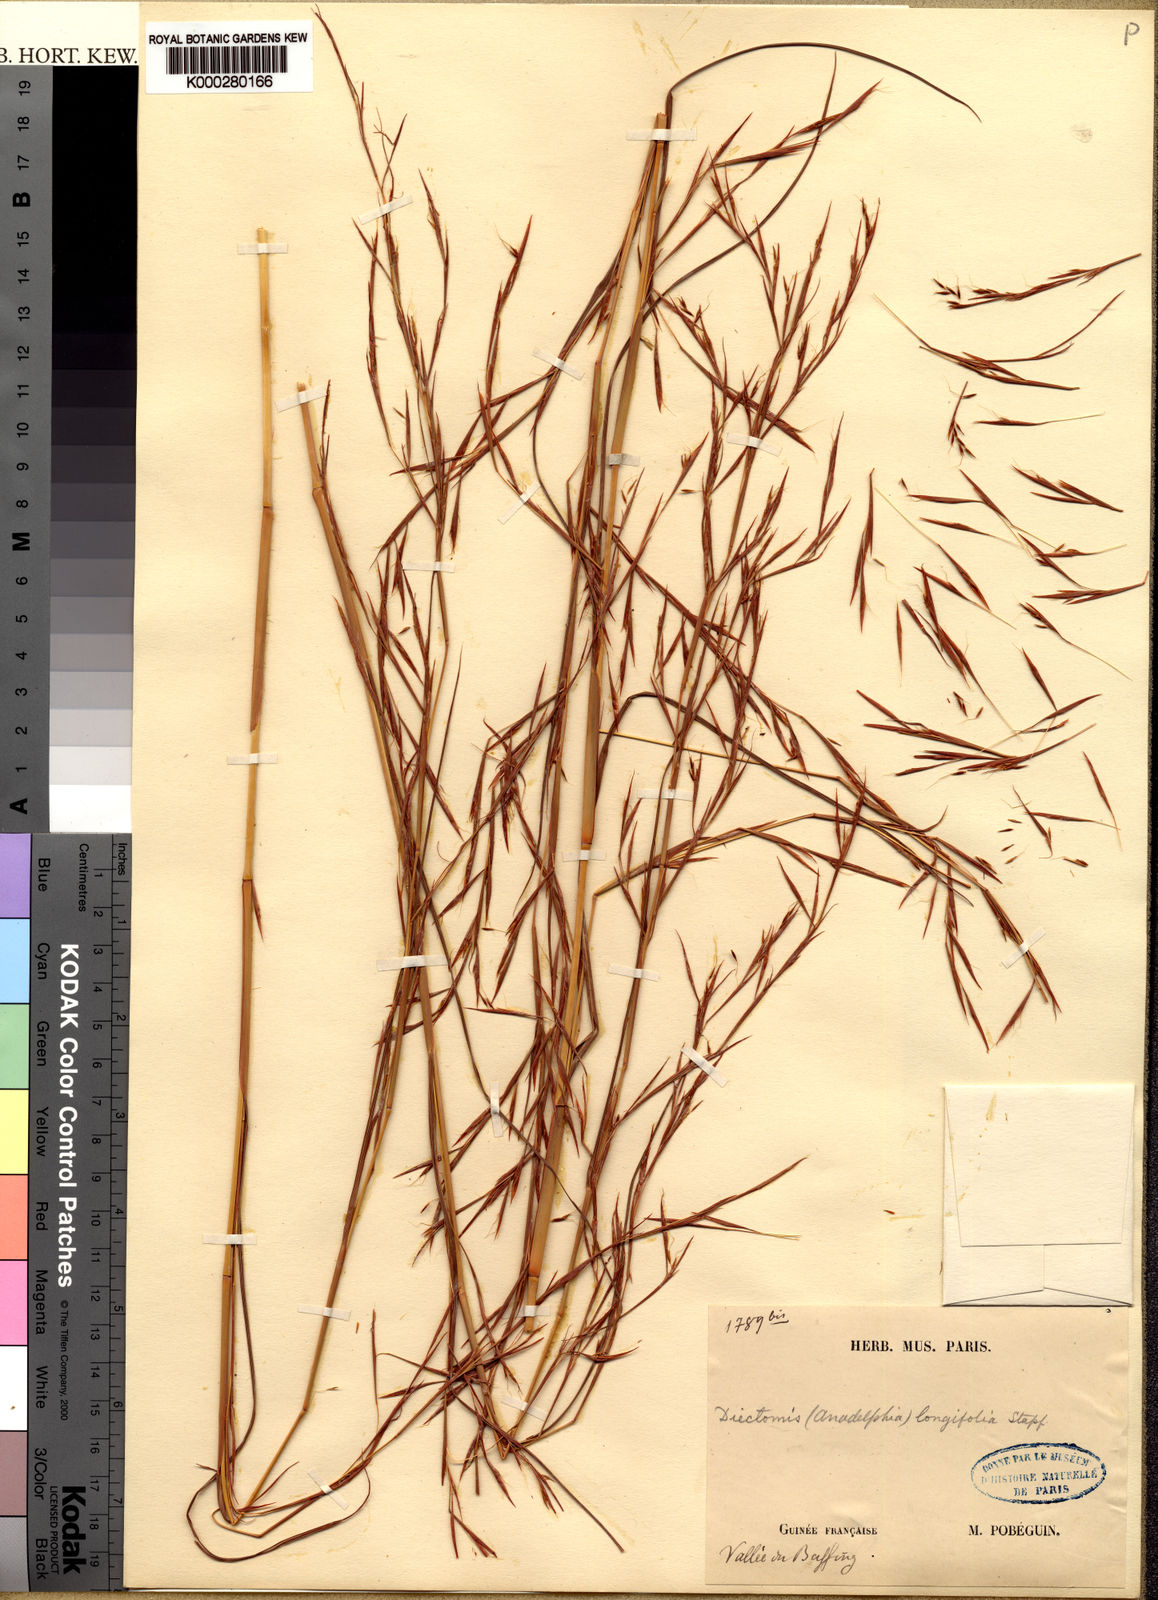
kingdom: Plantae
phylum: Tracheophyta
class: Liliopsida
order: Poales
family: Poaceae
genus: Anadelphia
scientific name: Anadelphia leptocoma
